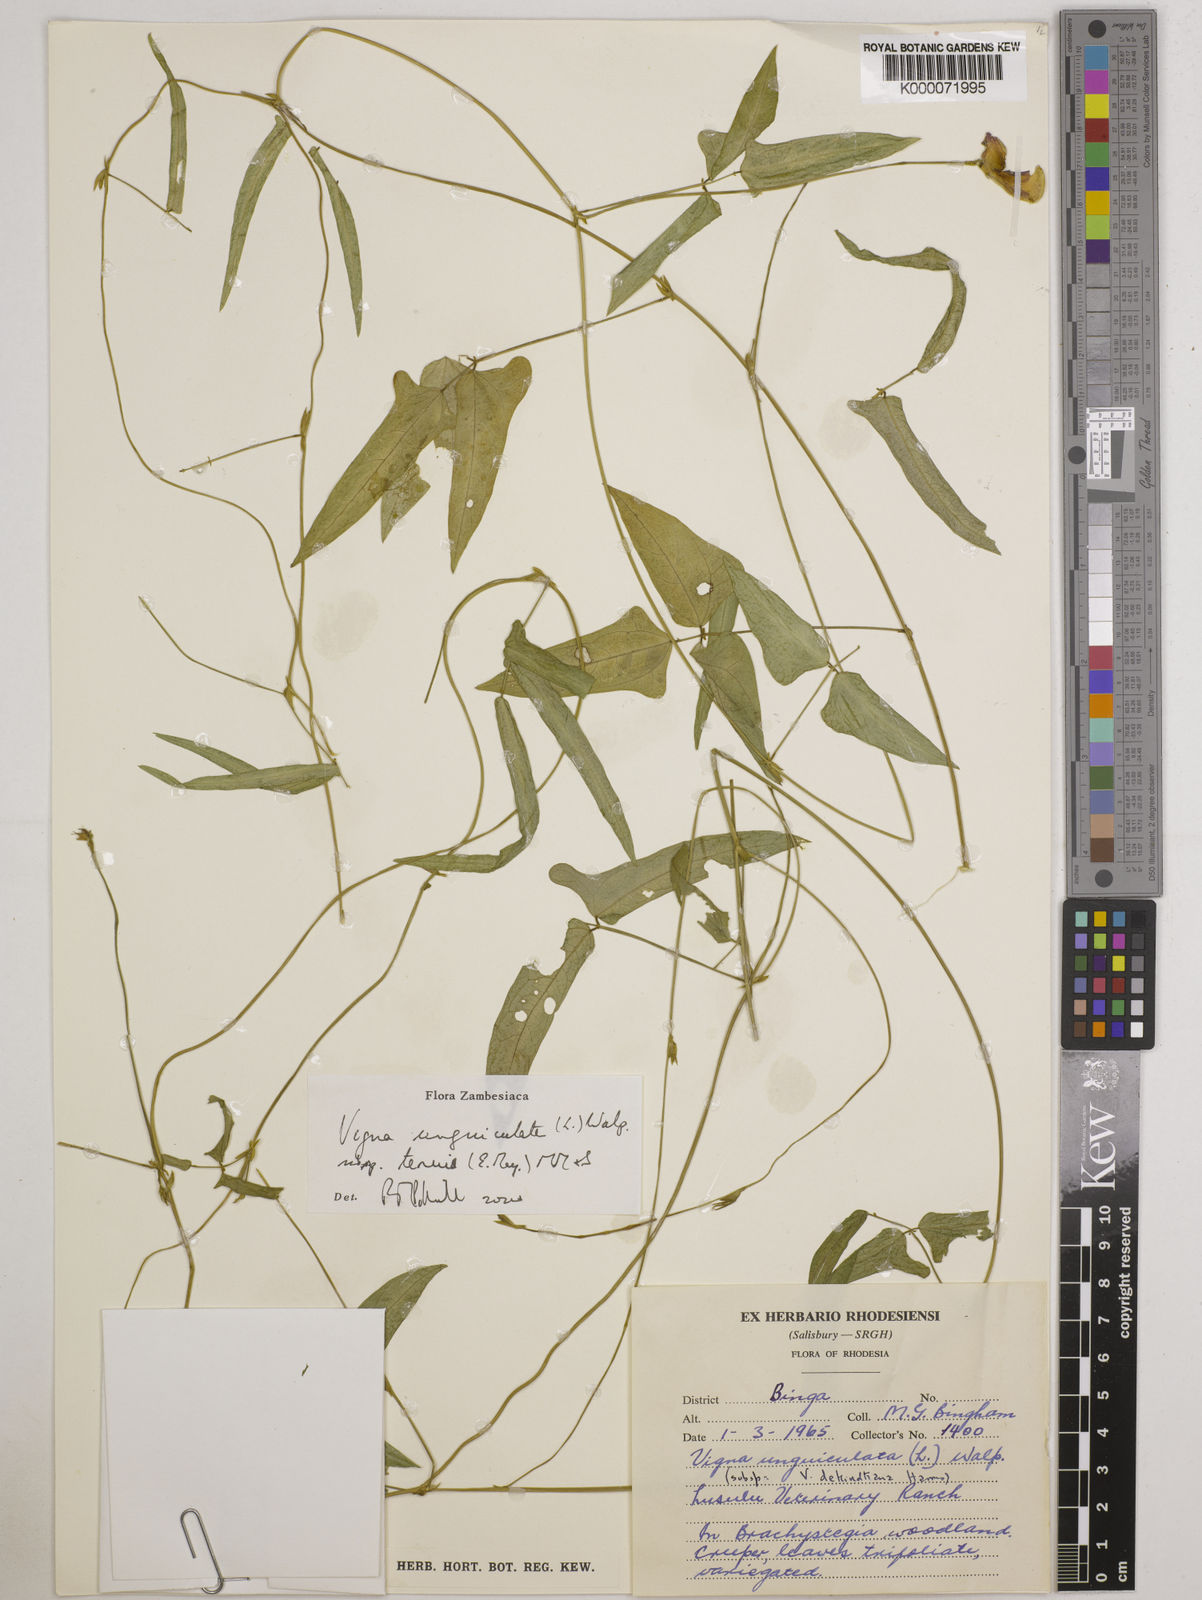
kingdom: Plantae
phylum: Tracheophyta
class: Magnoliopsida
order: Fabales
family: Fabaceae
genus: Vigna
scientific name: Vigna unguiculata
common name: Cowpea
